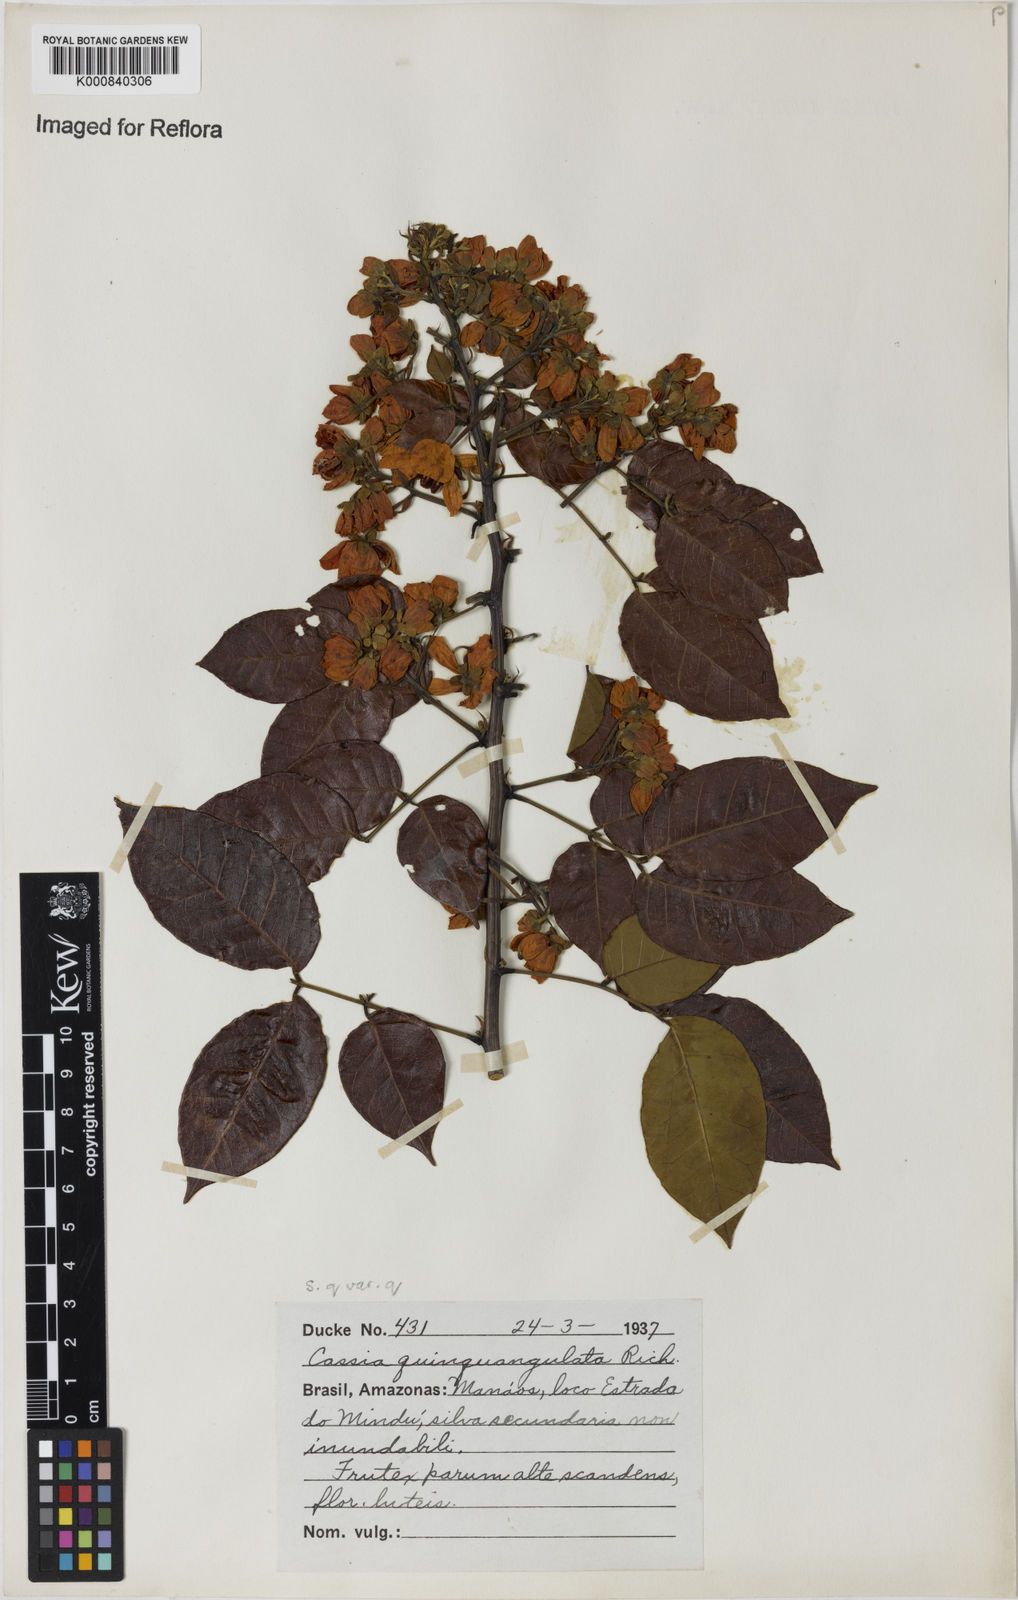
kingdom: Plantae
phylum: Tracheophyta
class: Magnoliopsida
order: Fabales
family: Fabaceae
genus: Senna
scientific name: Senna
